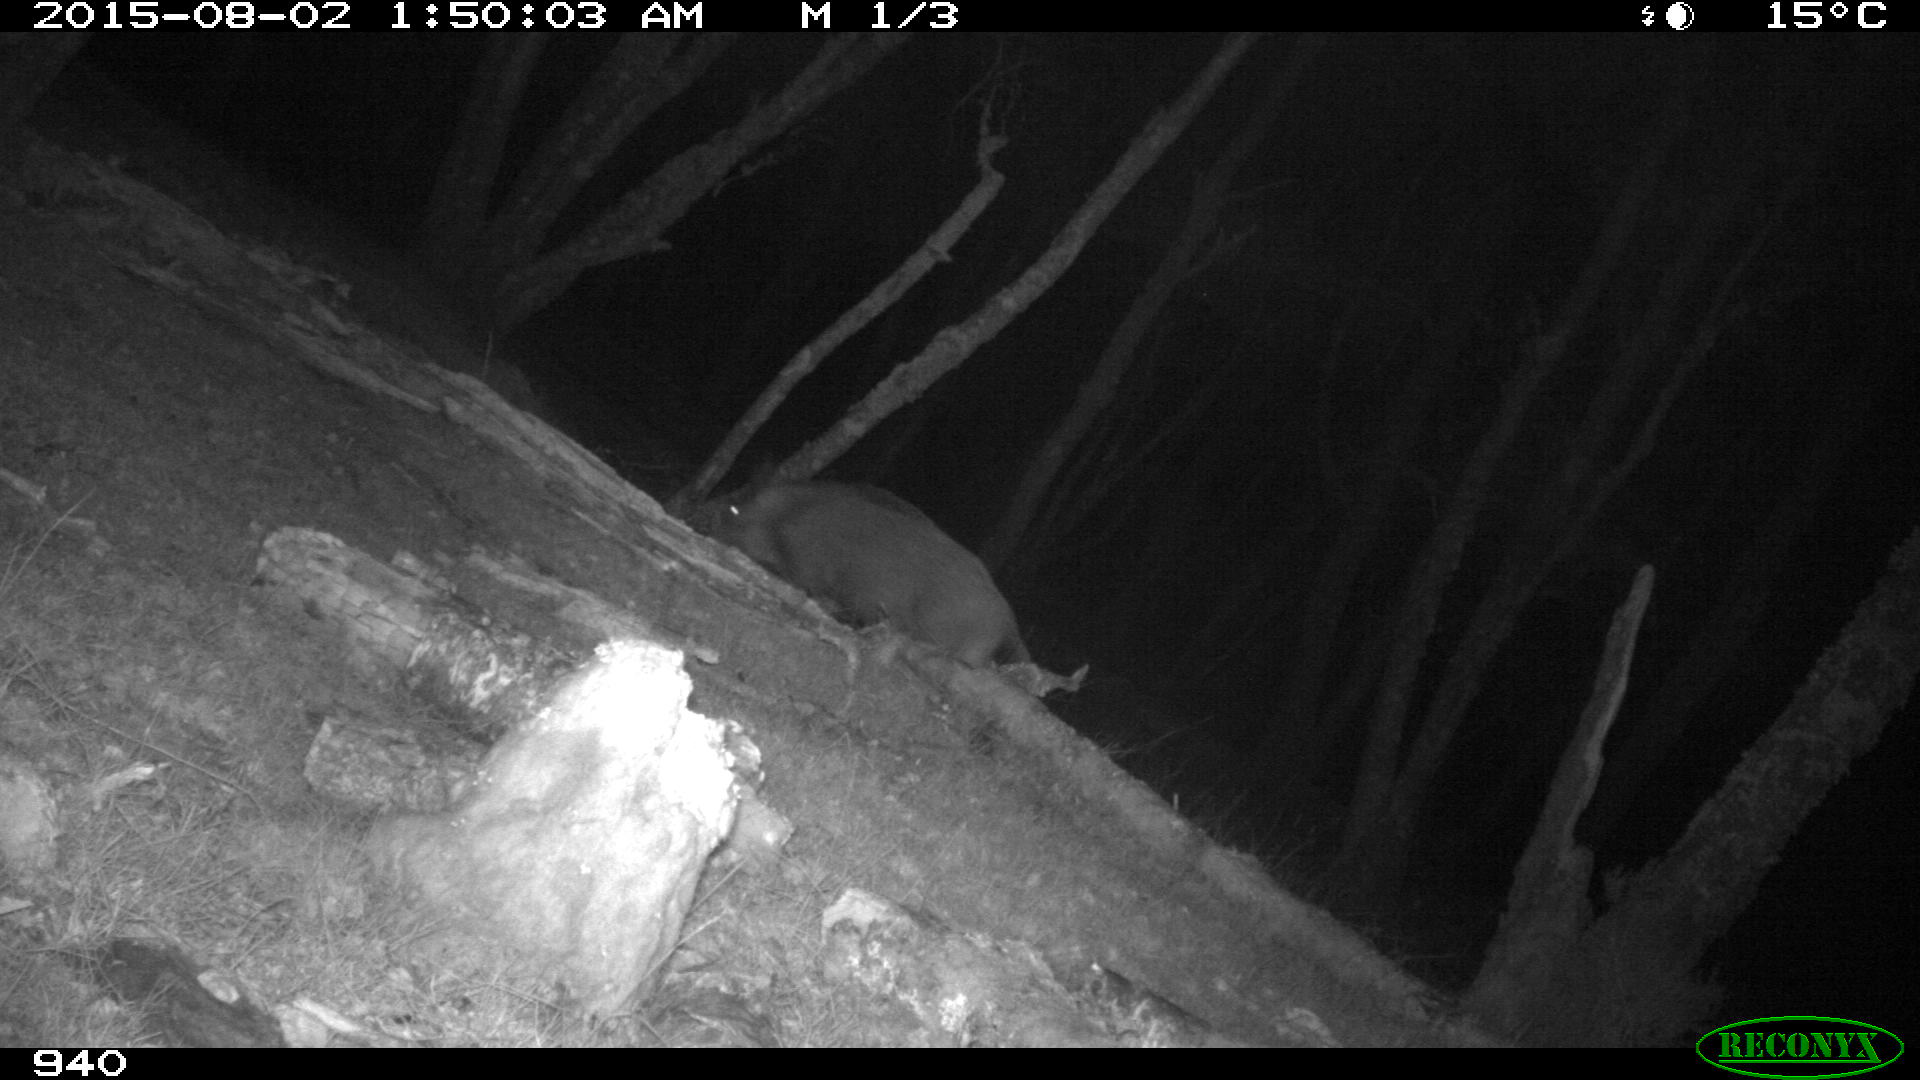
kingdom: Animalia
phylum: Chordata
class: Mammalia
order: Artiodactyla
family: Suidae
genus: Sus
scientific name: Sus scrofa
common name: Wild boar
